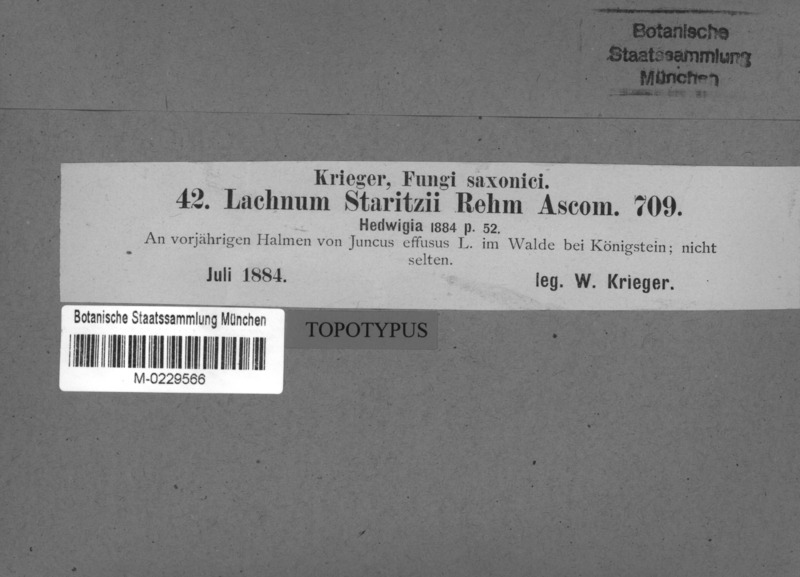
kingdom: Fungi
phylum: Ascomycota
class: Leotiomycetes
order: Helotiales
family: Lachnaceae
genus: Lachnum
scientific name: Lachnum diminutum
